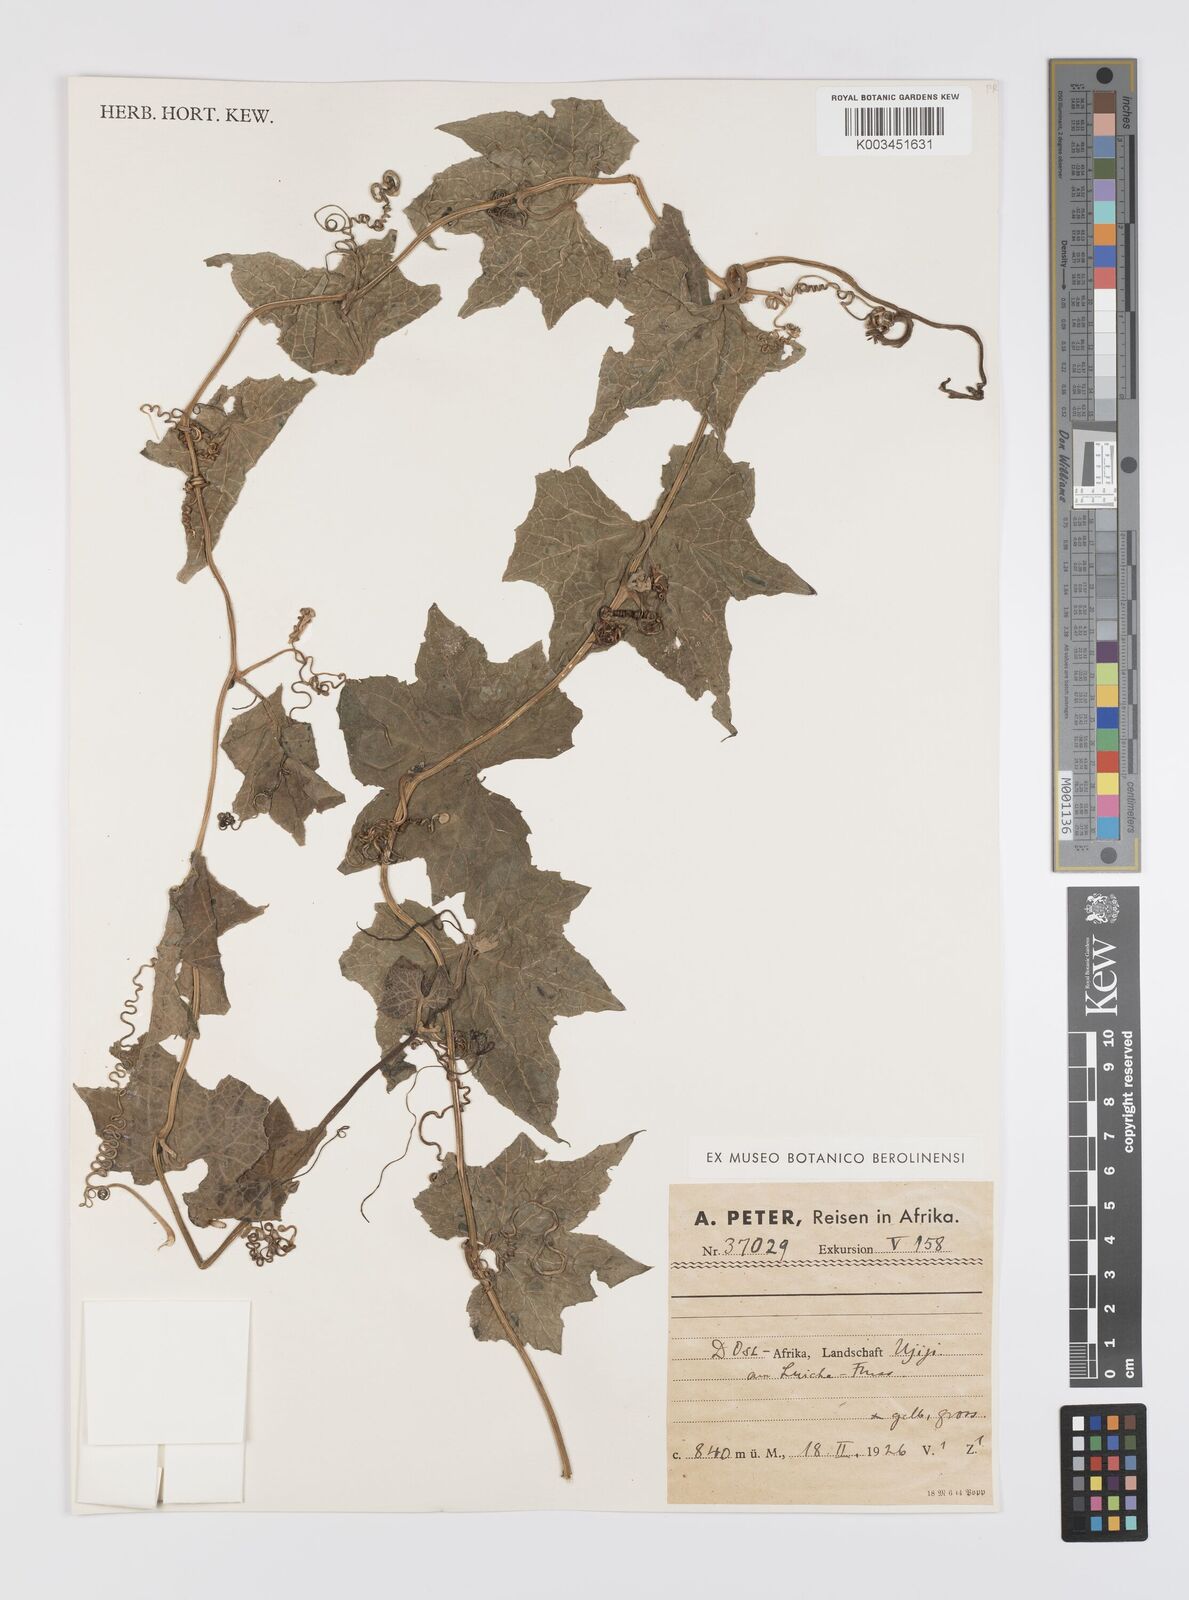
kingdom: Plantae
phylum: Tracheophyta
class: Magnoliopsida
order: Cucurbitales
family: Cucurbitaceae
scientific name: Cucurbitaceae
